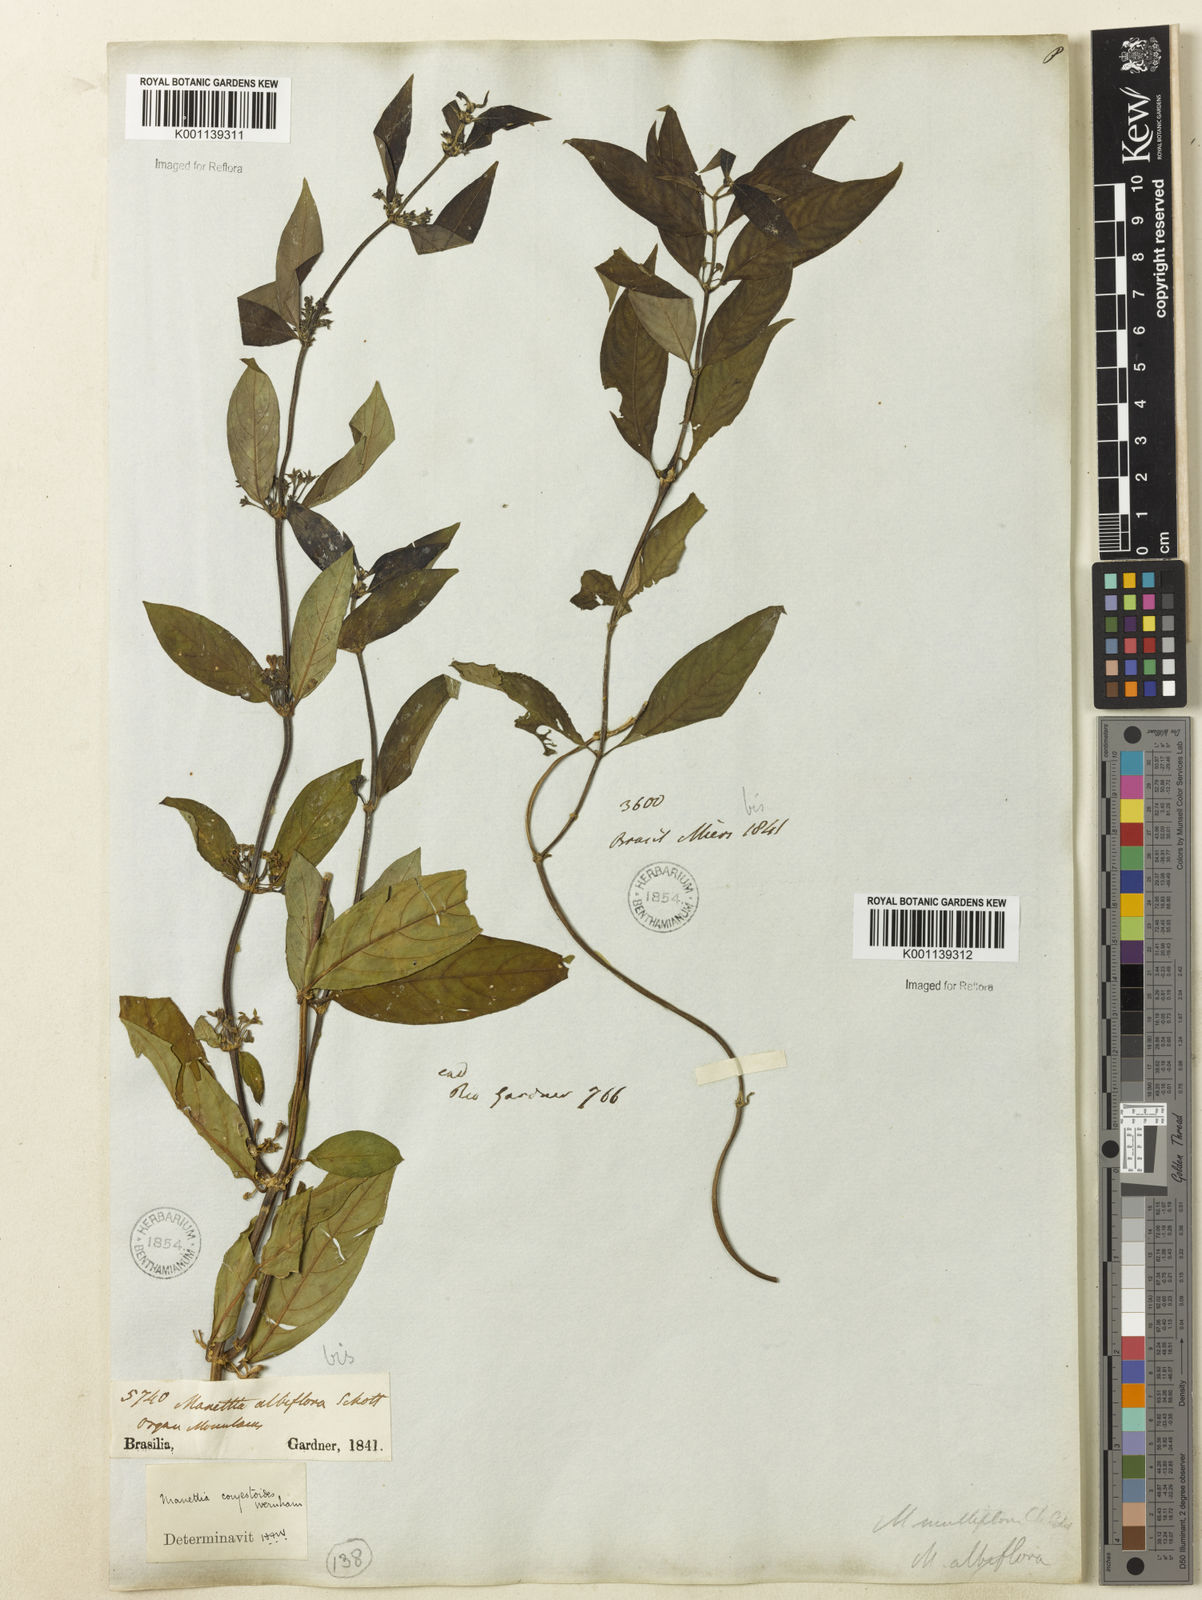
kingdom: Plantae
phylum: Tracheophyta
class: Magnoliopsida
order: Gentianales
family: Rubiaceae
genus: Manettia
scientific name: Manettia congestoides
